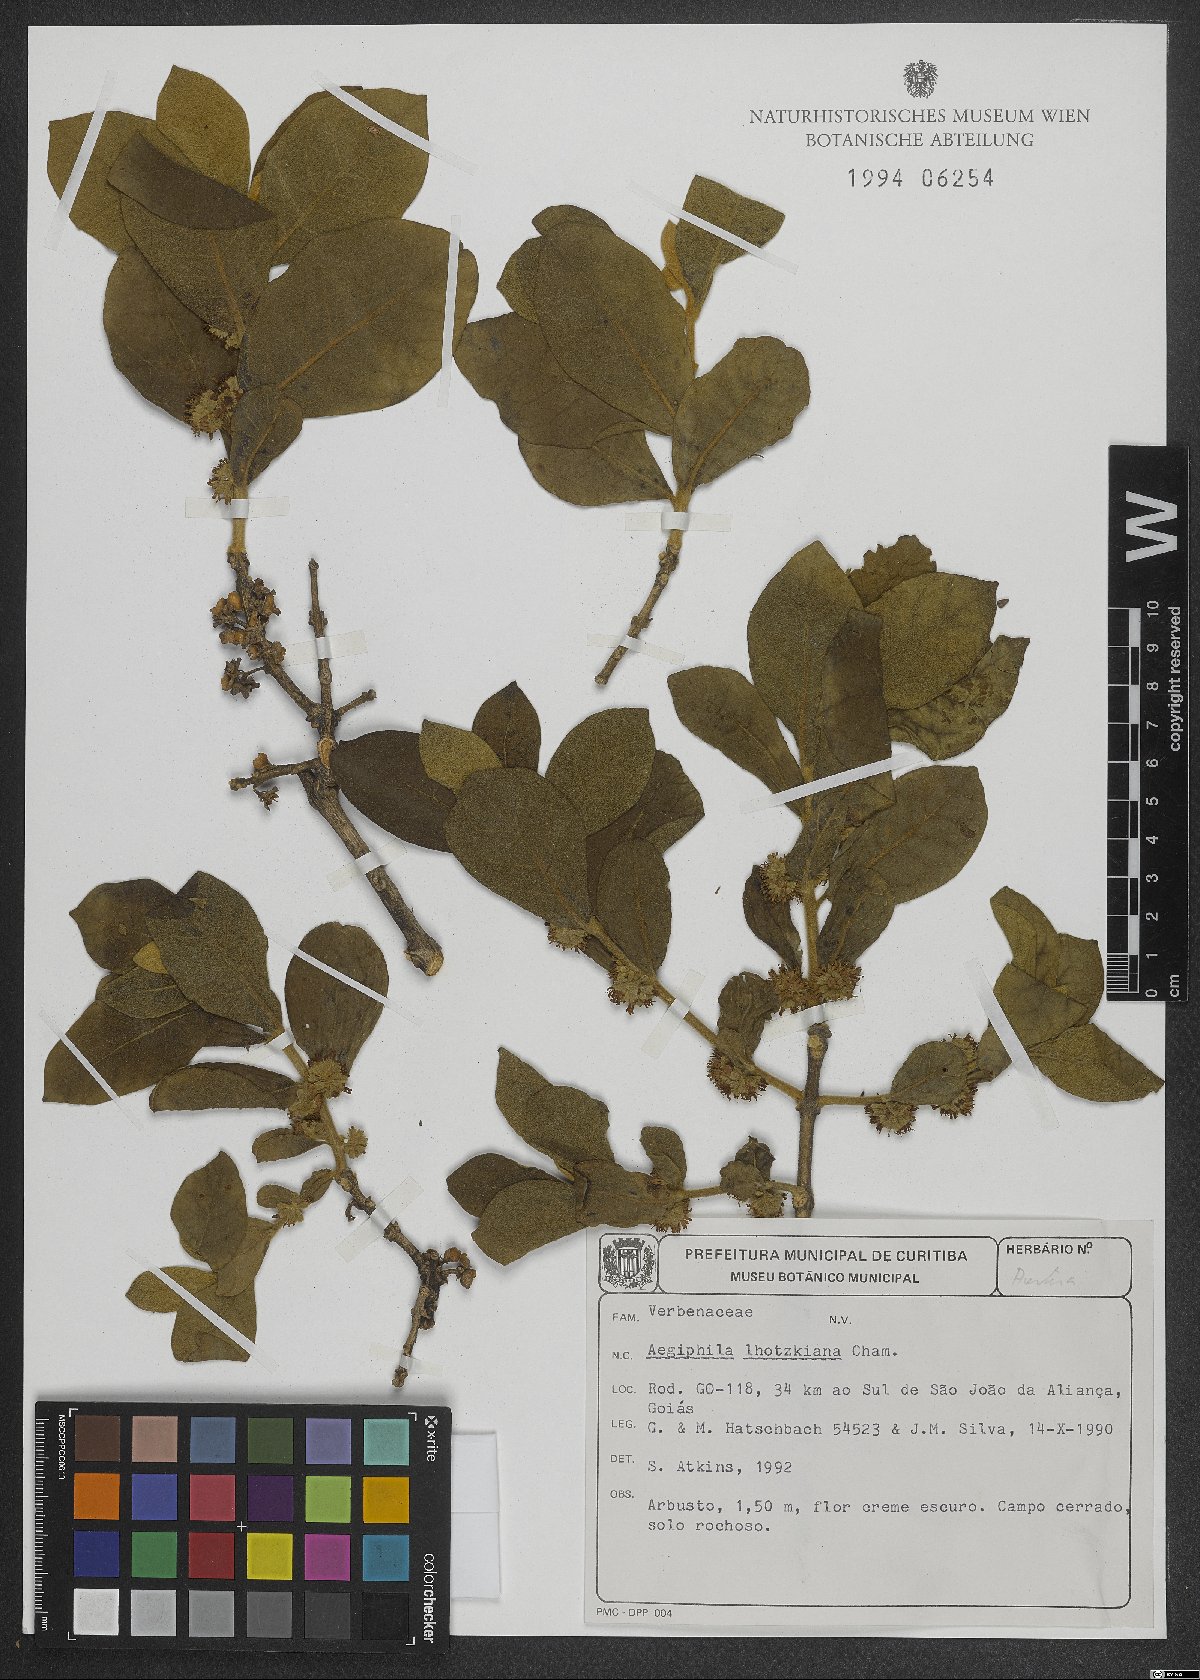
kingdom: Plantae
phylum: Tracheophyta
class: Magnoliopsida
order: Lamiales
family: Lamiaceae
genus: Aegiphila
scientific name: Aegiphila lhotskiana
